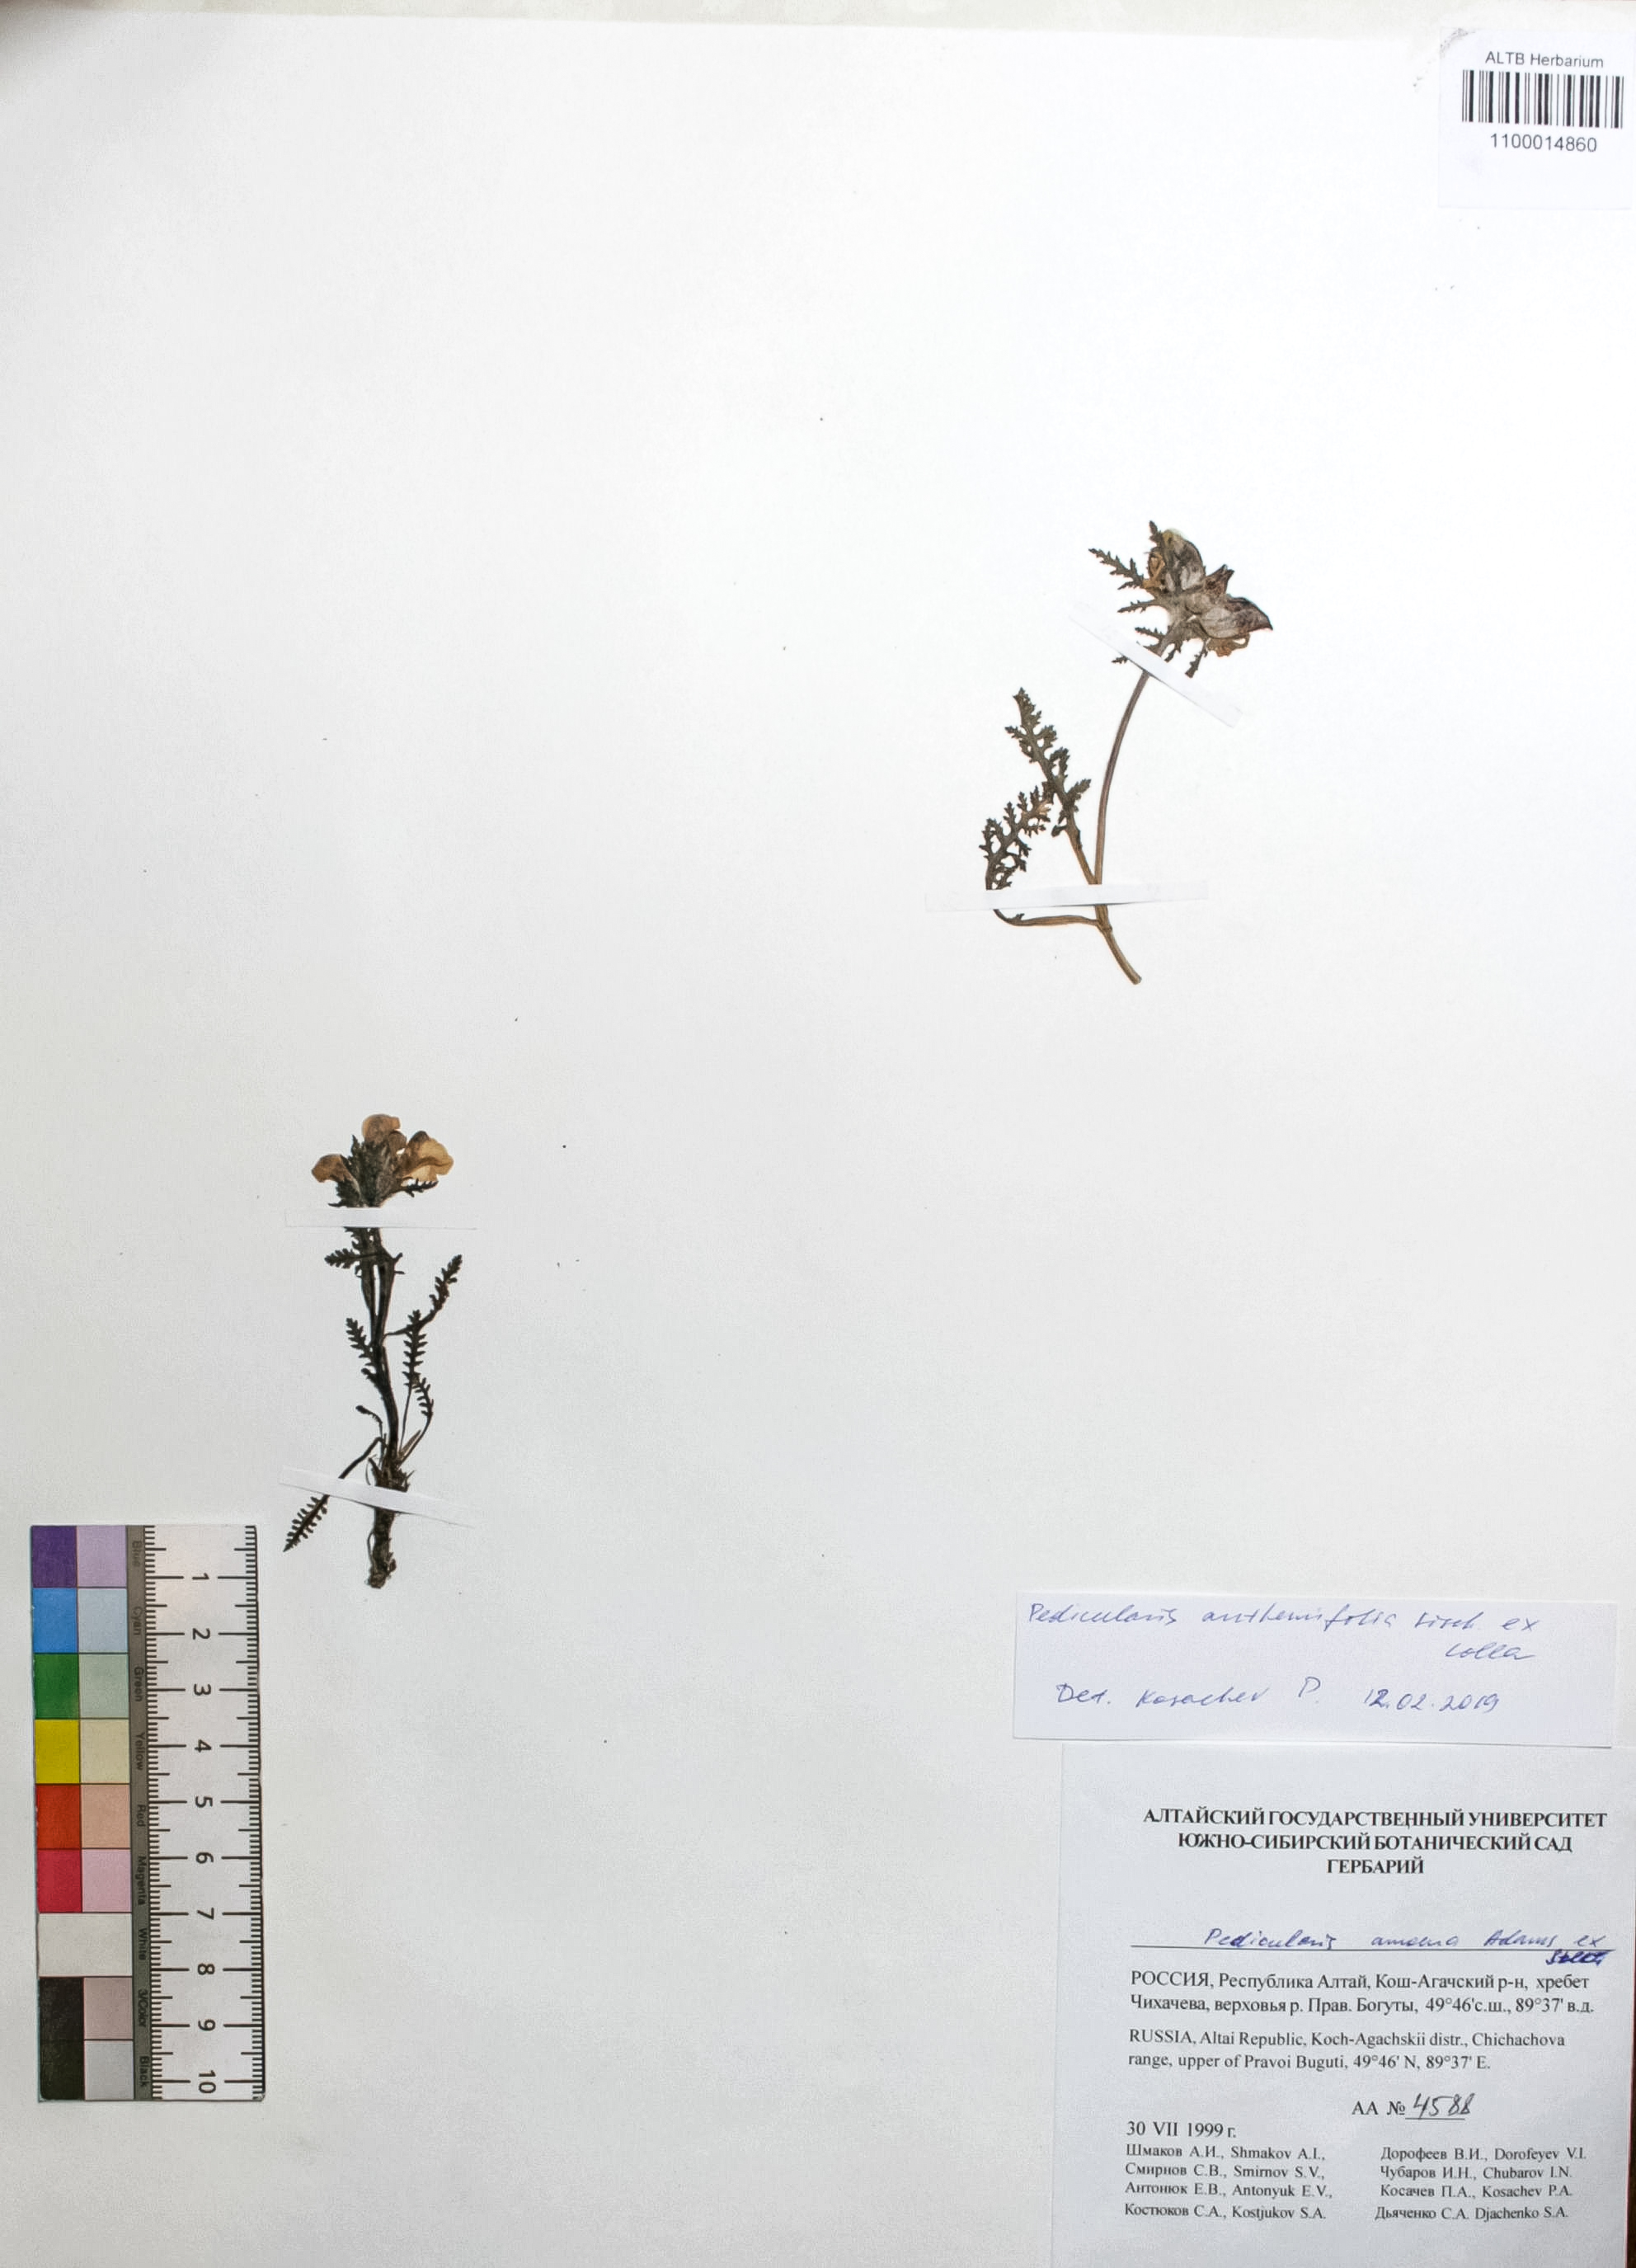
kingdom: Plantae
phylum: Tracheophyta
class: Magnoliopsida
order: Lamiales
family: Orobanchaceae
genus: Pedicularis
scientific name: Pedicularis compacta
